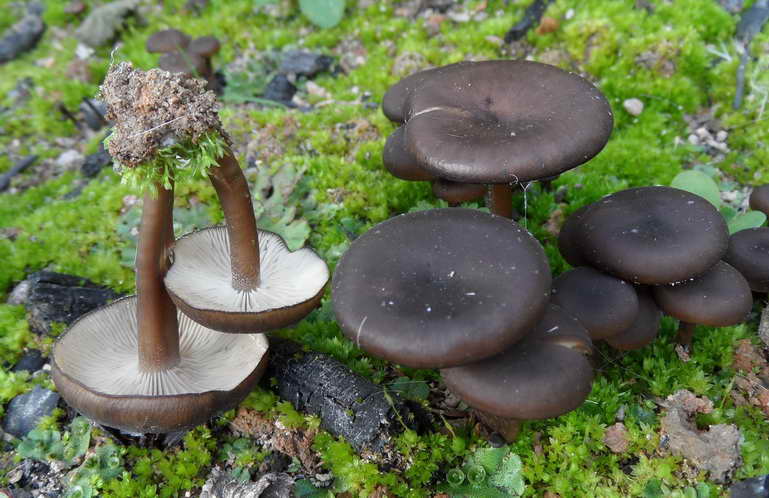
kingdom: Fungi
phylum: Basidiomycota
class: Agaricomycetes
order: Agaricales
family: Tricholomataceae
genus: Myxomphalia
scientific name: Myxomphalia maura
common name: kulhat
